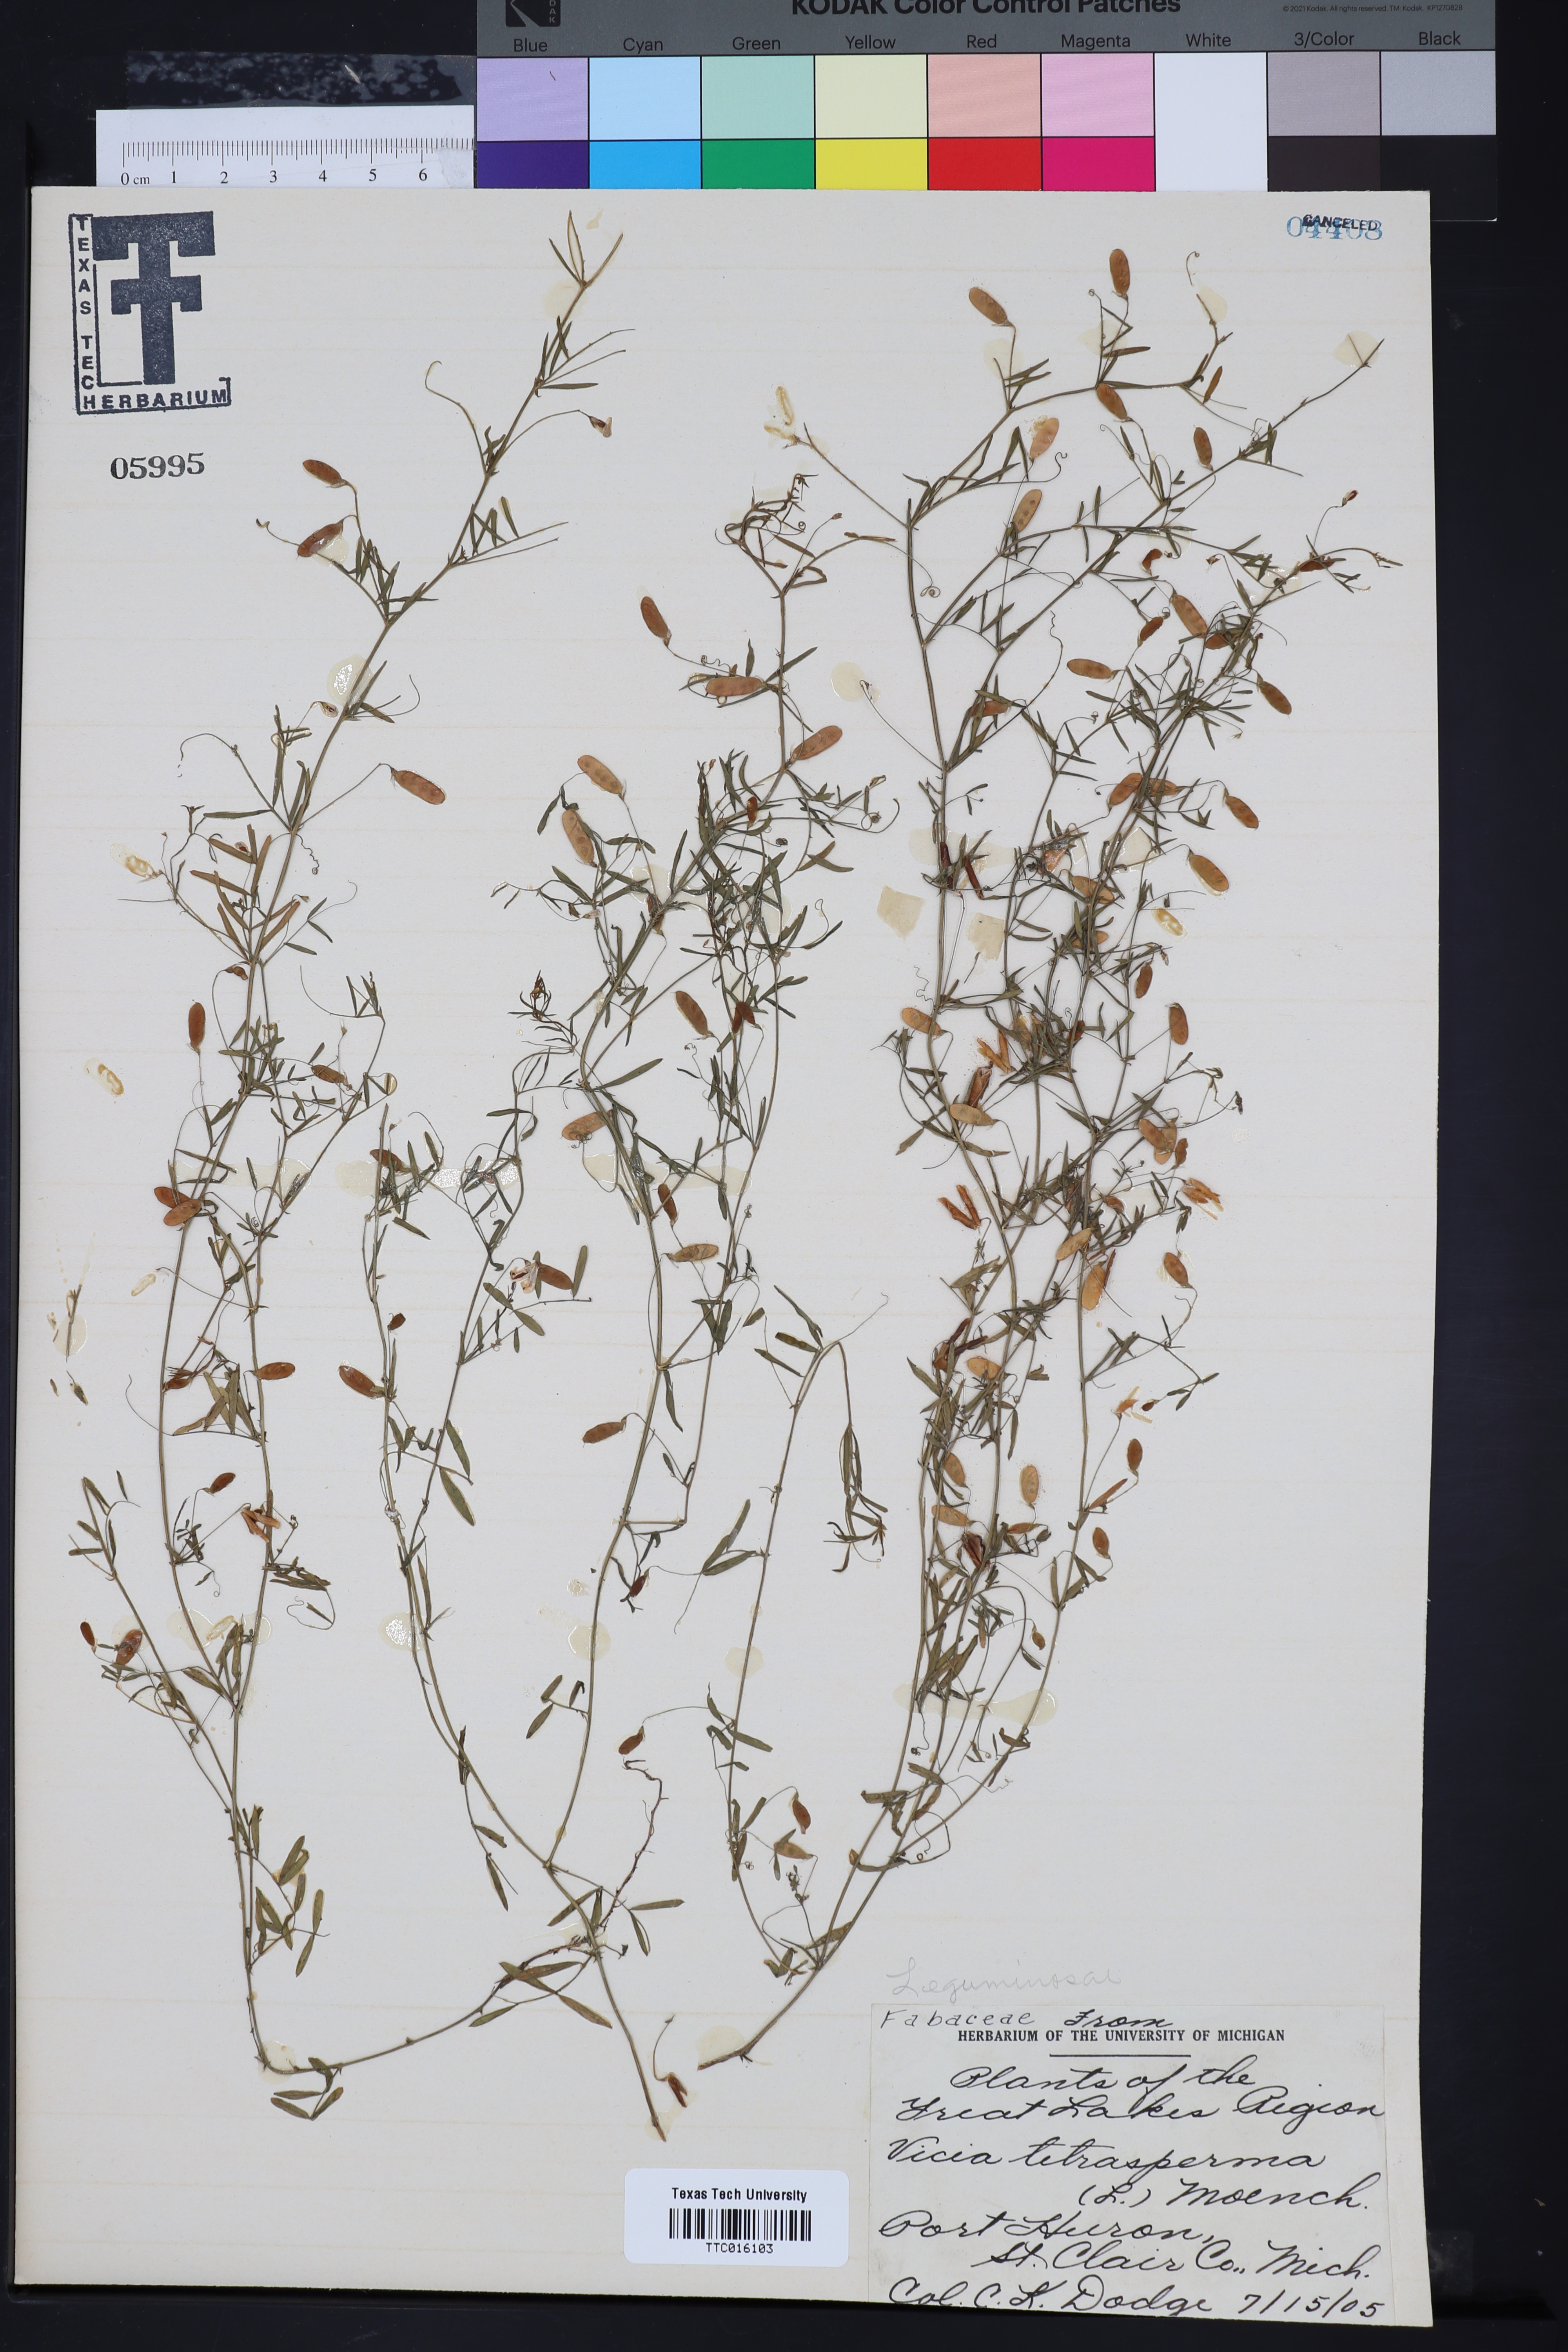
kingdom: Plantae
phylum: Tracheophyta
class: Magnoliopsida
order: Fabales
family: Fabaceae
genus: Vicia
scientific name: Vicia sepium
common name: Bush vetch
